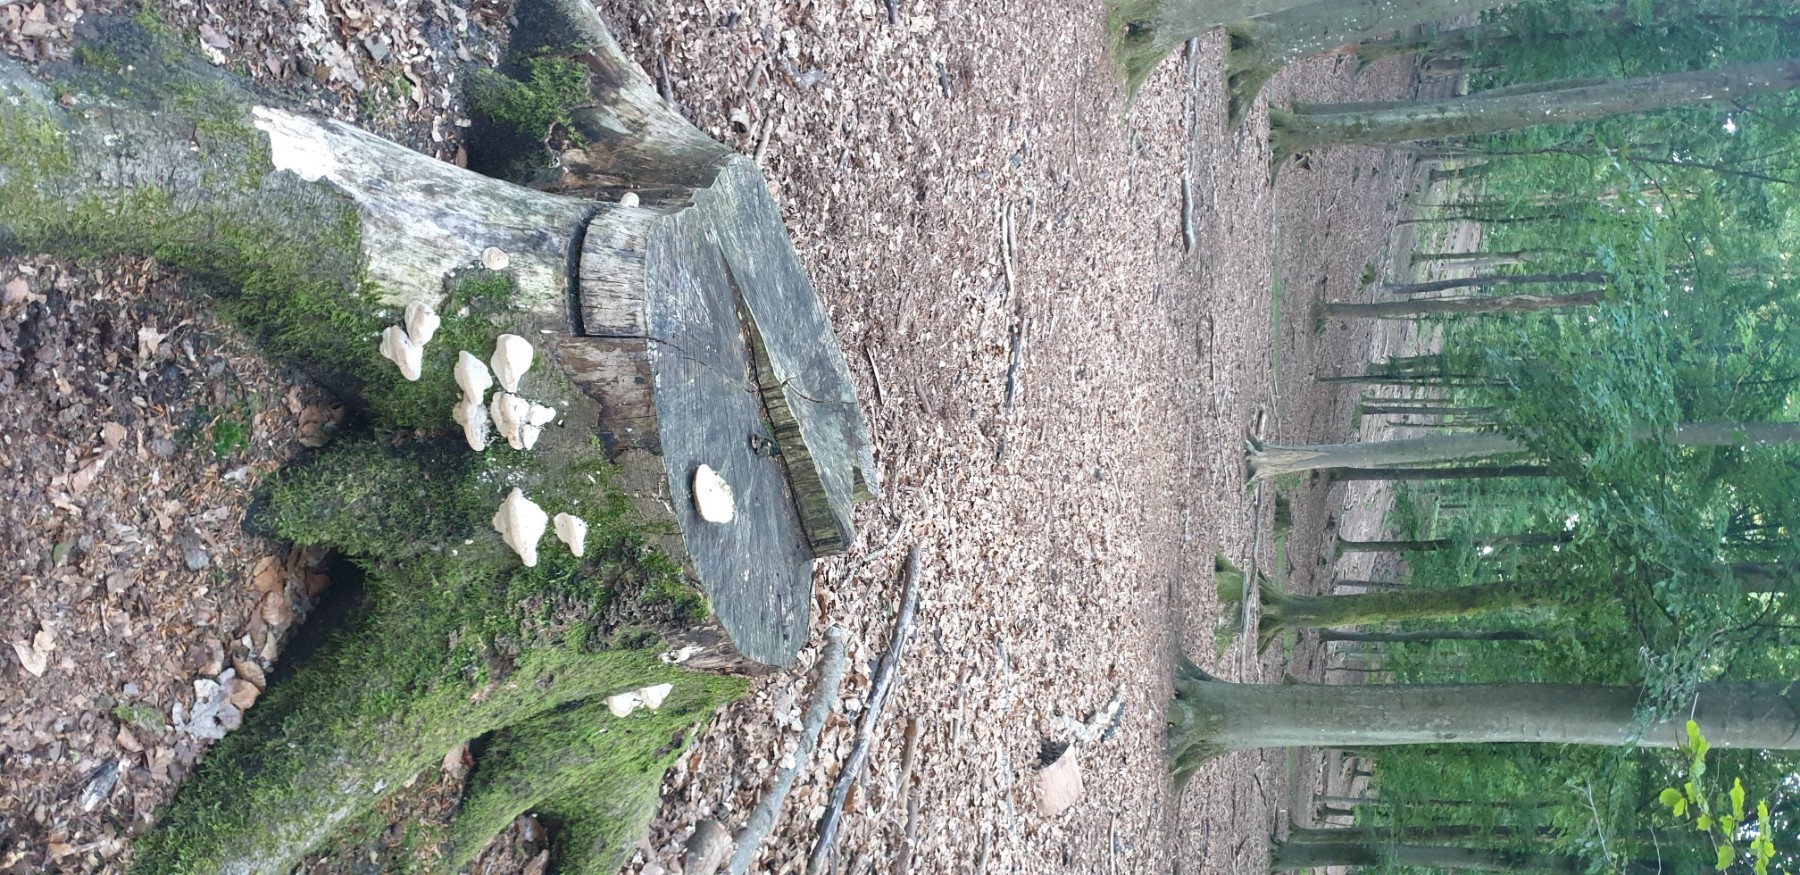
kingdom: Fungi
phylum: Basidiomycota
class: Agaricomycetes
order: Polyporales
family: Polyporaceae
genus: Trametes
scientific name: Trametes gibbosa
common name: puklet læderporesvamp
